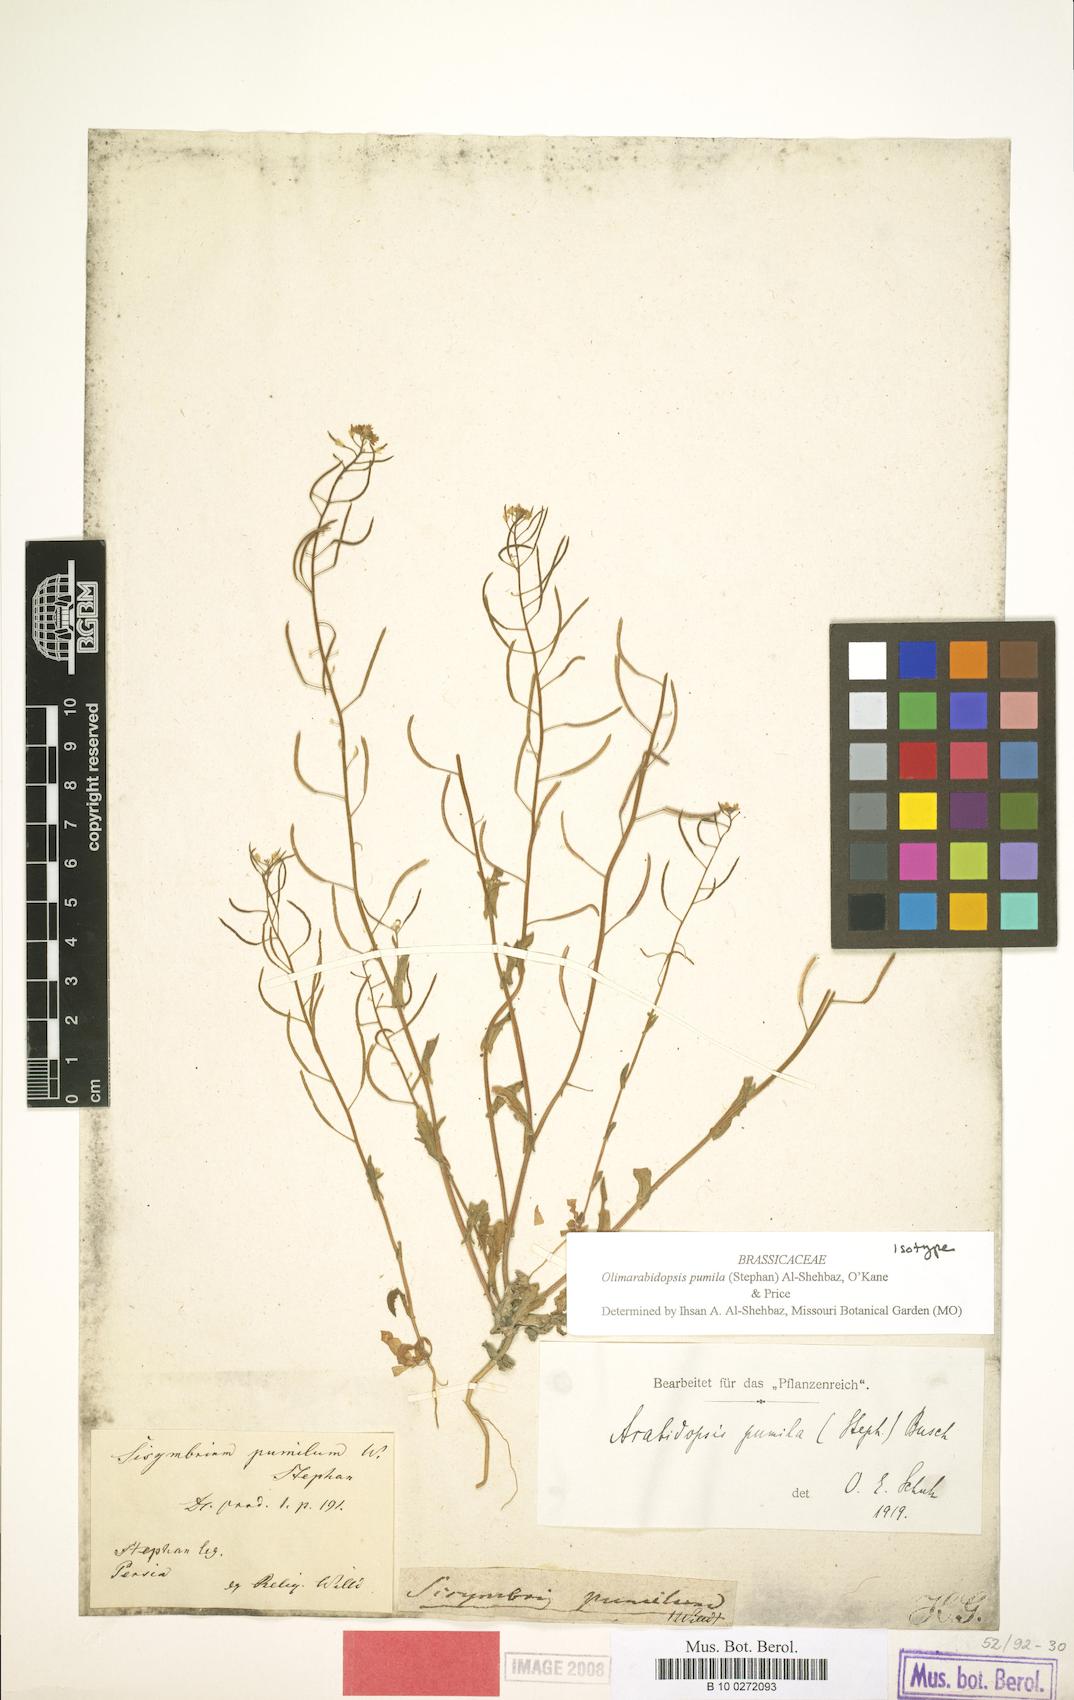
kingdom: Plantae
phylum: Tracheophyta
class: Magnoliopsida
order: Brassicales
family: Brassicaceae
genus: Sisymbrium
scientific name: Sisymbrium pumilum
